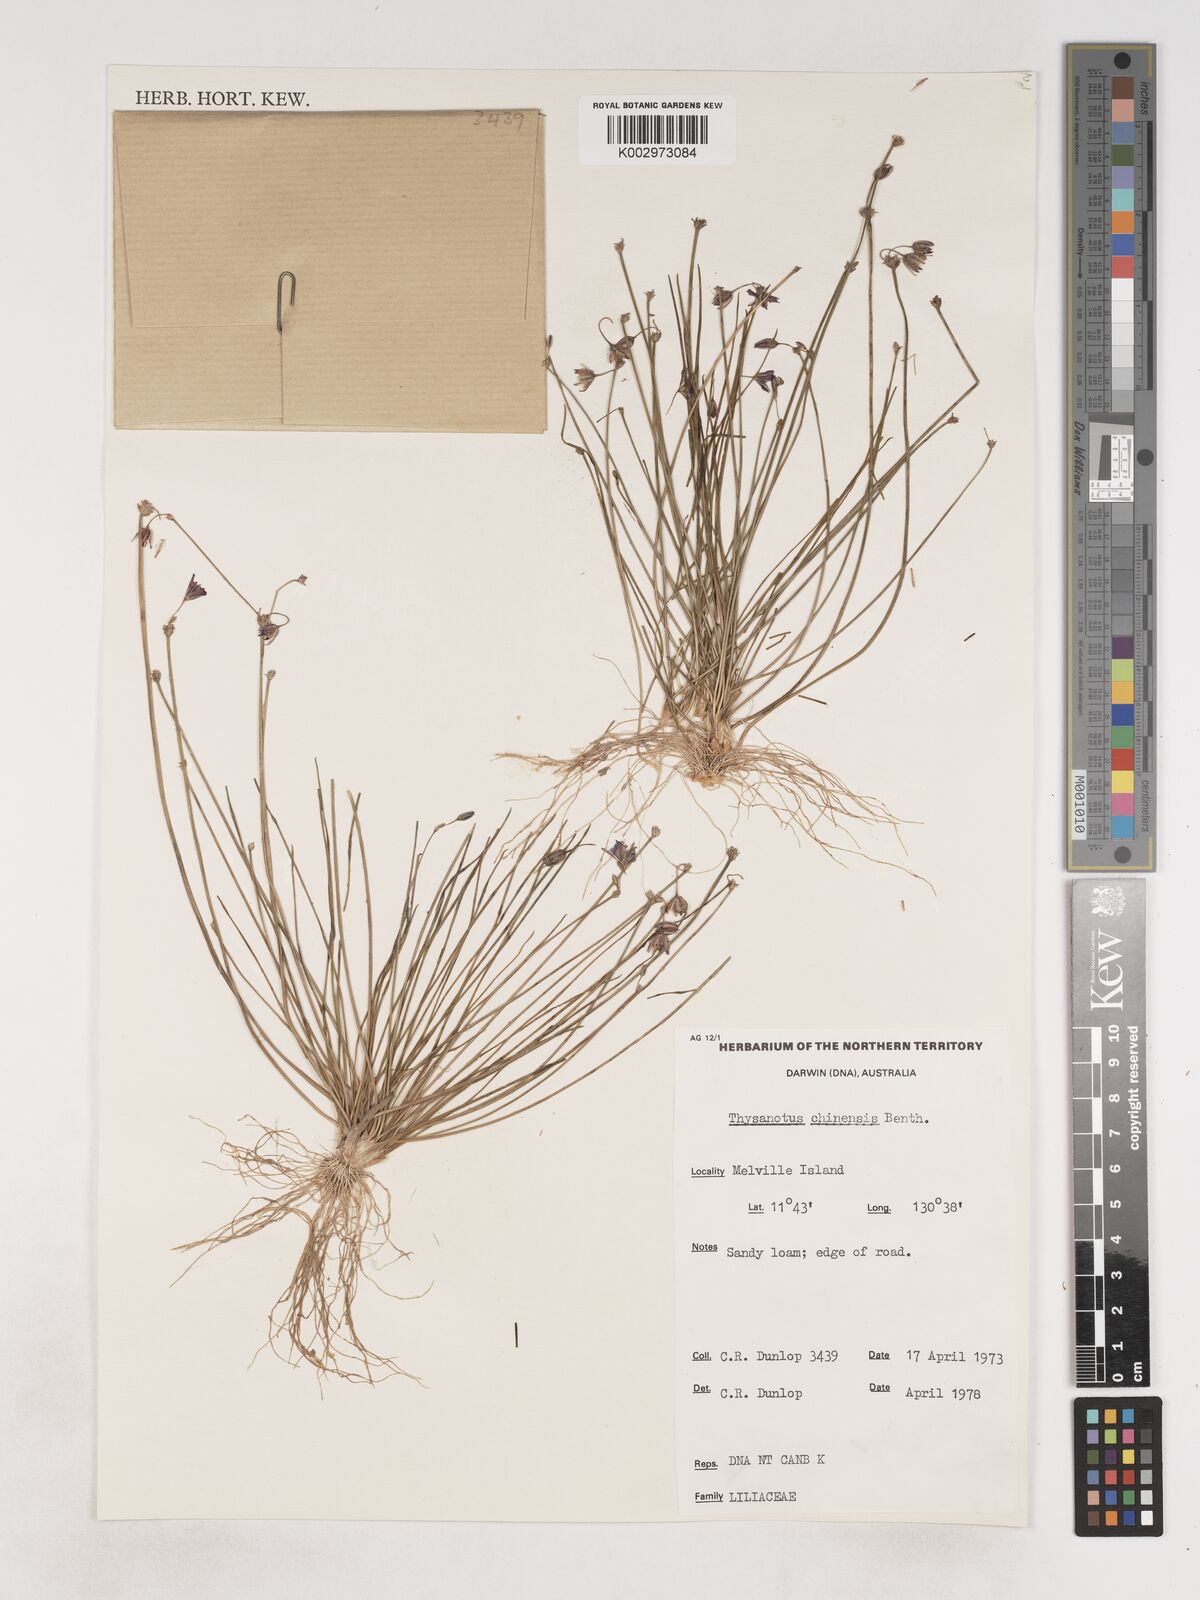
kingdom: Plantae
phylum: Tracheophyta
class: Liliopsida
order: Asparagales
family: Asparagaceae
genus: Thysanotus
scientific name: Thysanotus chinensis
